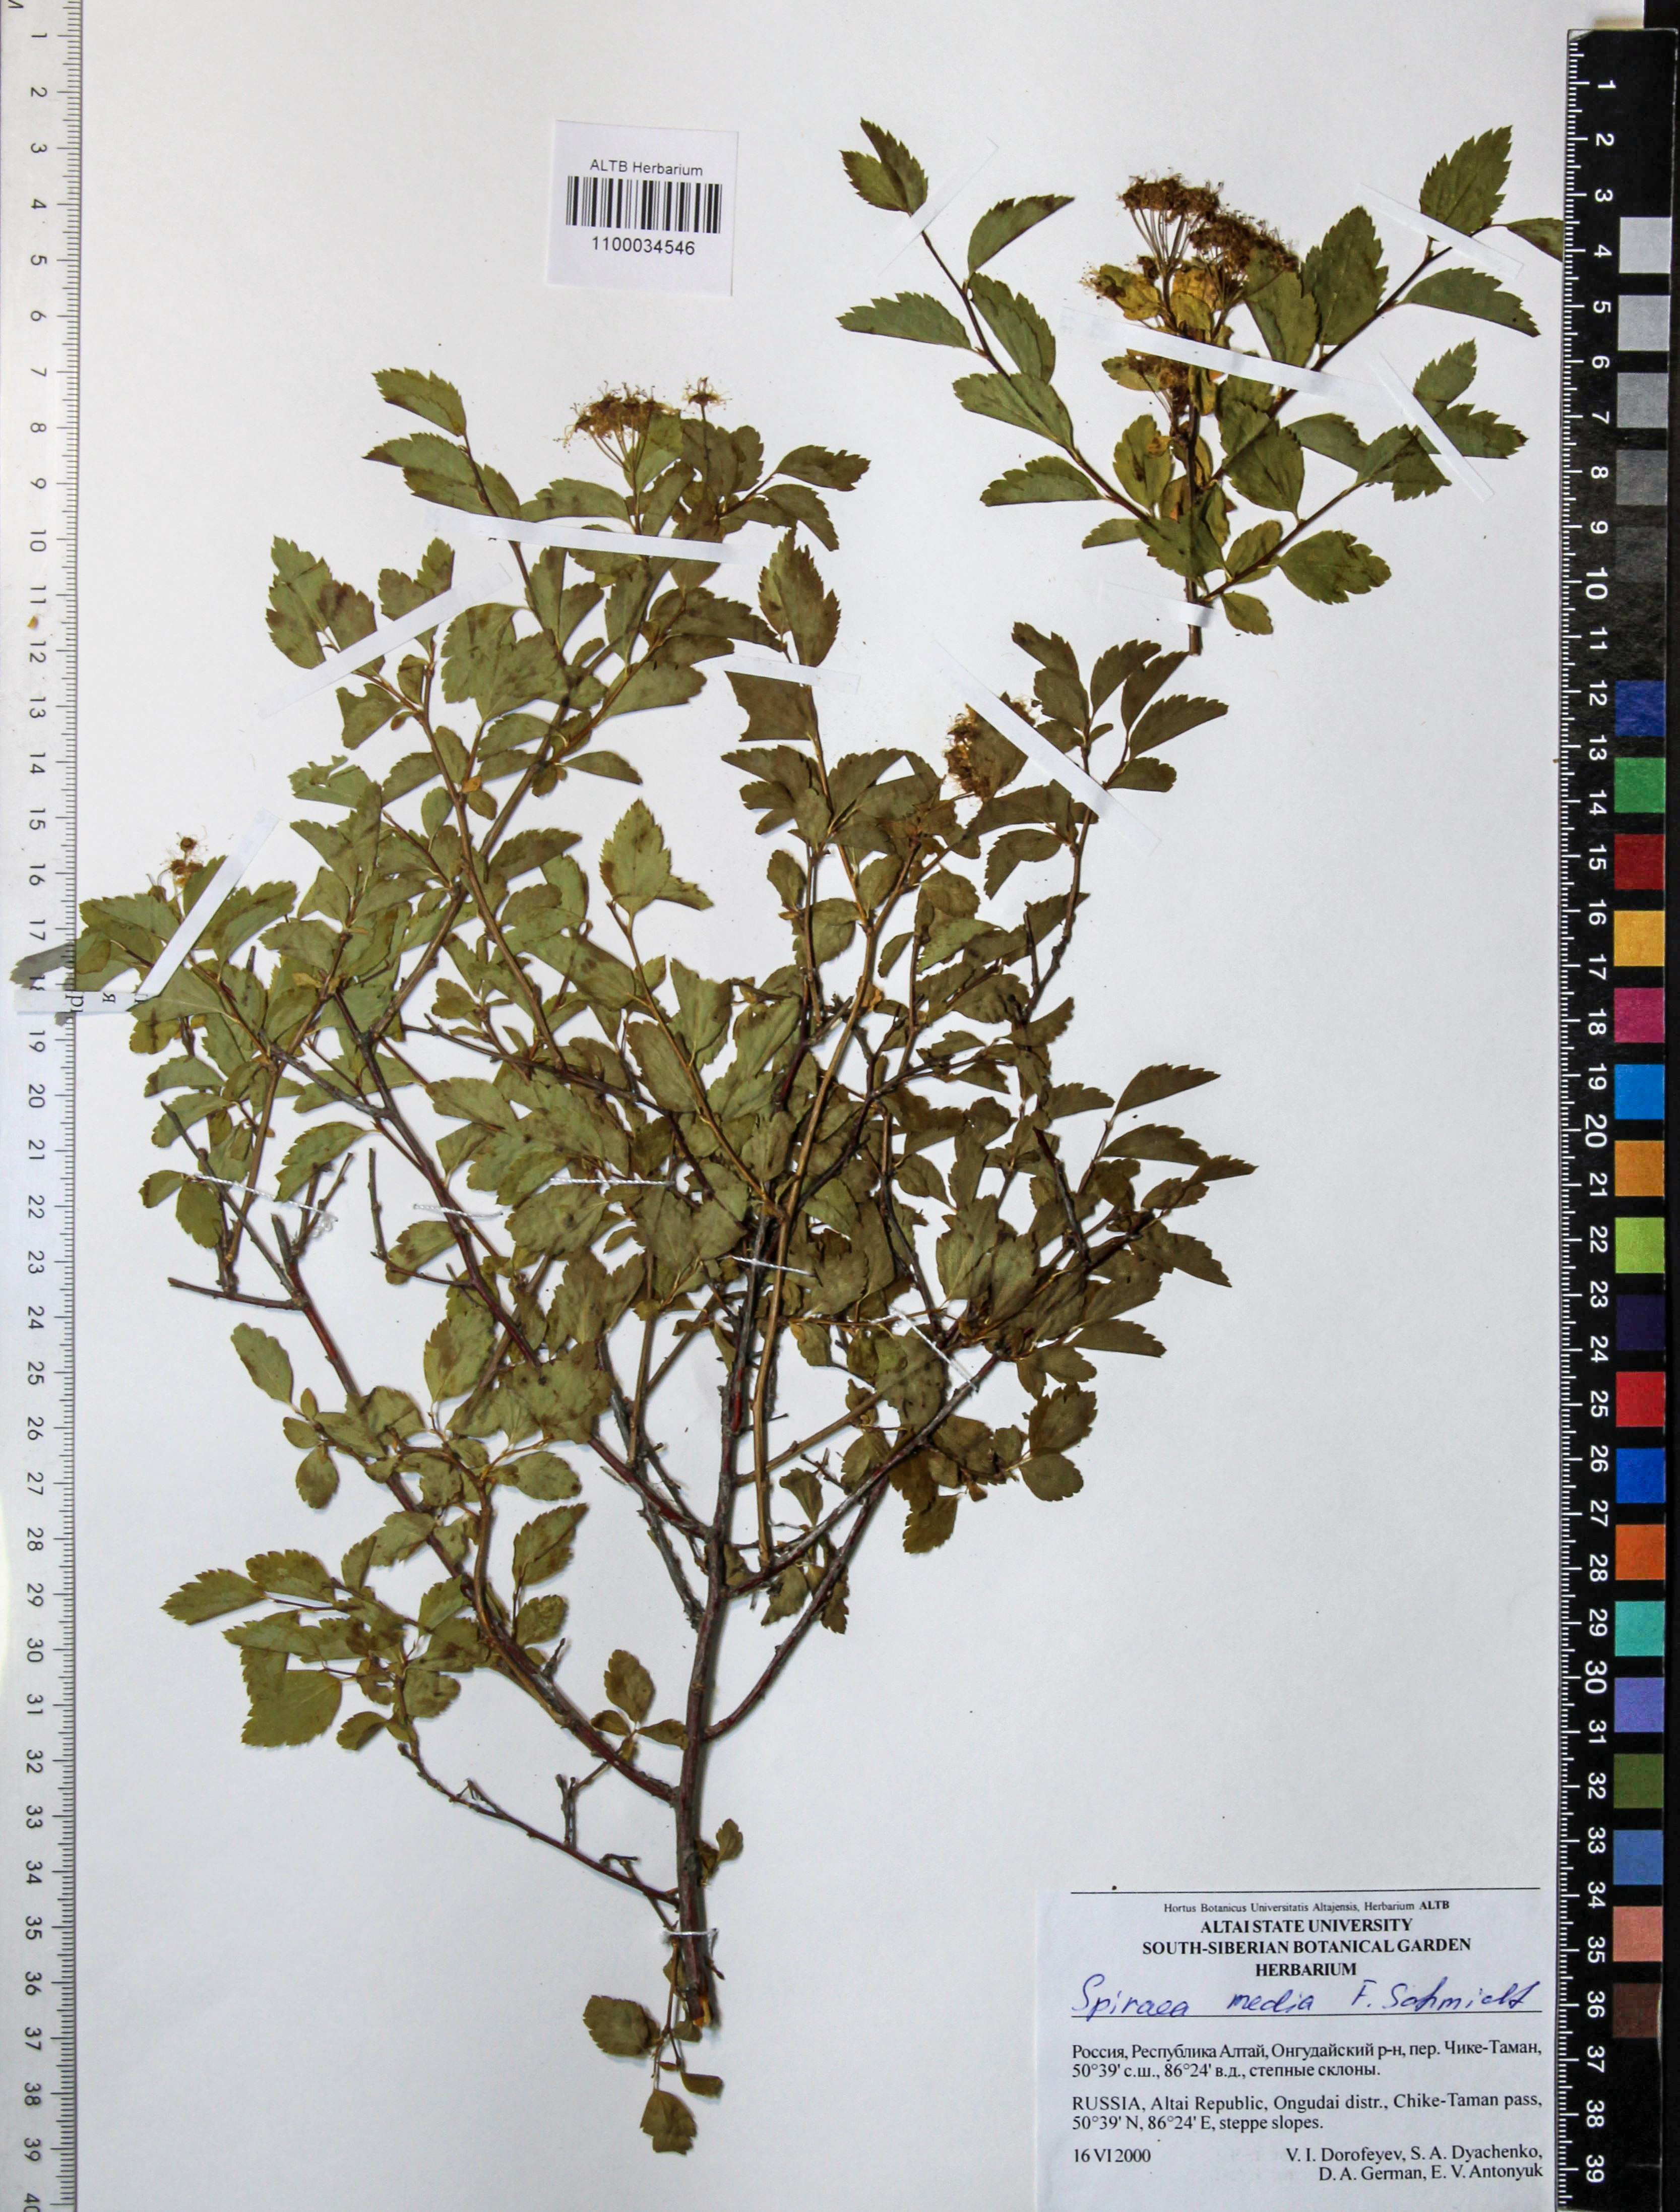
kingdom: Plantae
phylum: Tracheophyta
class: Magnoliopsida
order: Rosales
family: Rosaceae
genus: Spiraea
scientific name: Spiraea media
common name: Russian spiraea
